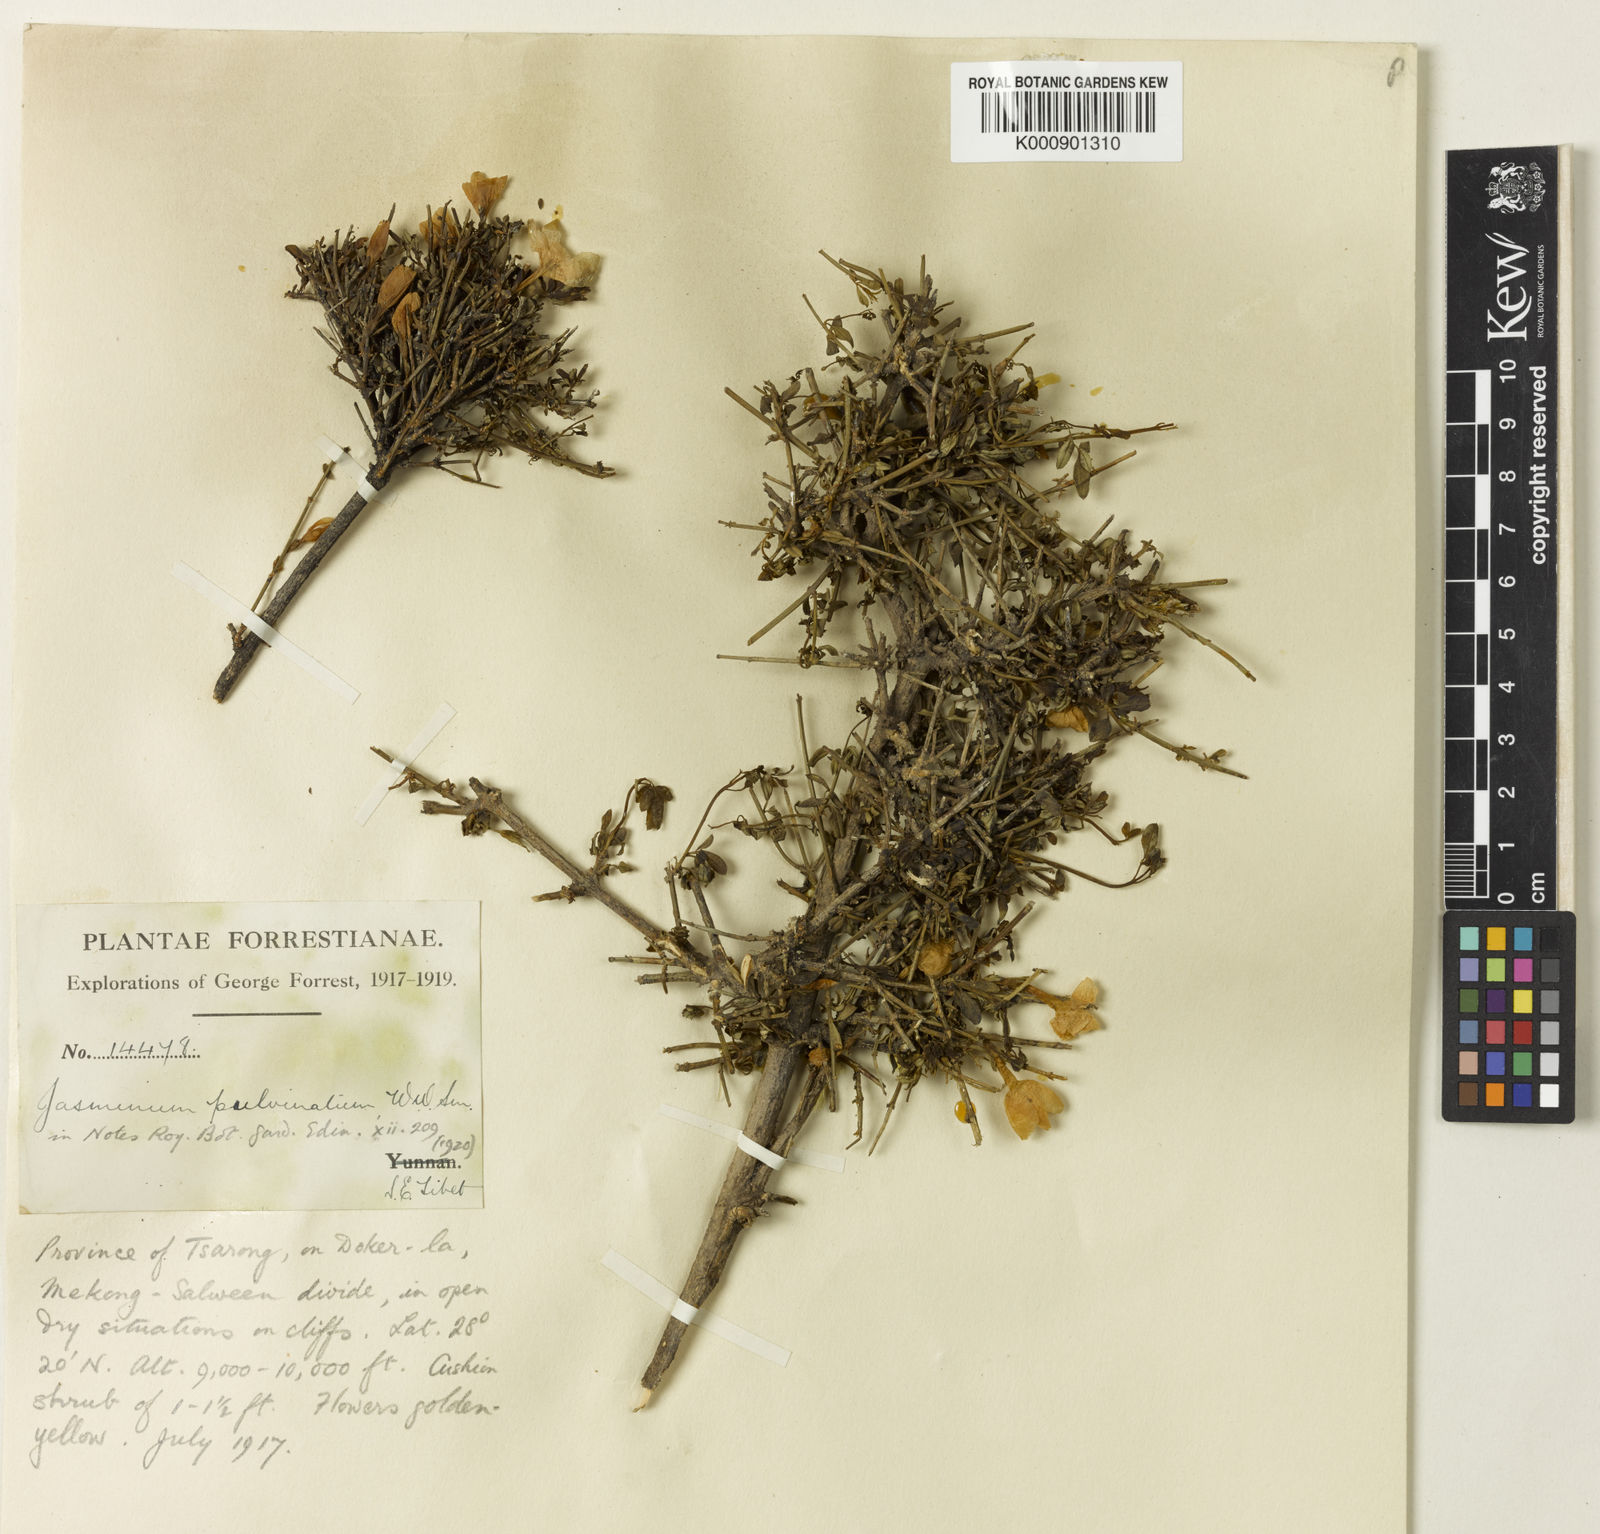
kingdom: Plantae
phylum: Tracheophyta
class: Magnoliopsida
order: Lamiales
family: Oleaceae
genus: Jasminum
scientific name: Jasminum nudiflorum
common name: Winter jasmine
